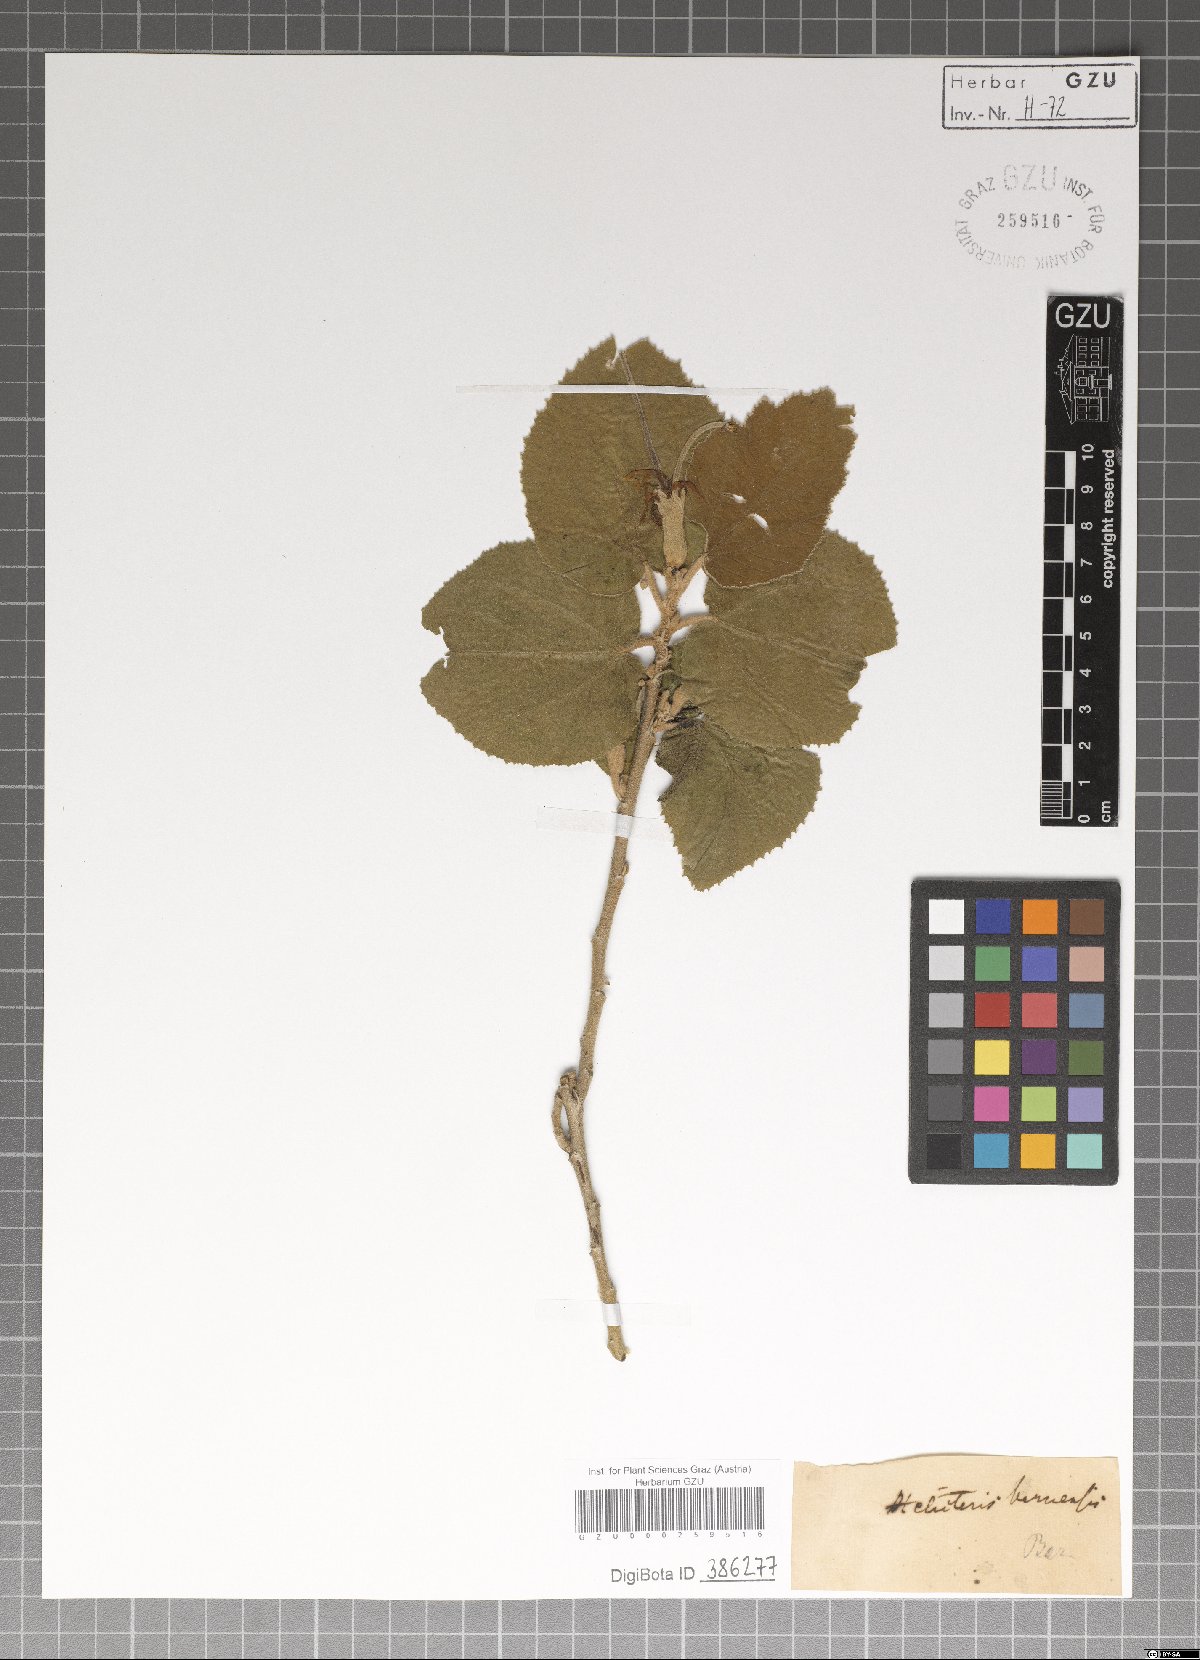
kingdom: Plantae
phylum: Tracheophyta
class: Magnoliopsida
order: Malvales
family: Malvaceae
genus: Helicteres
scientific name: Helicteres baruensis
